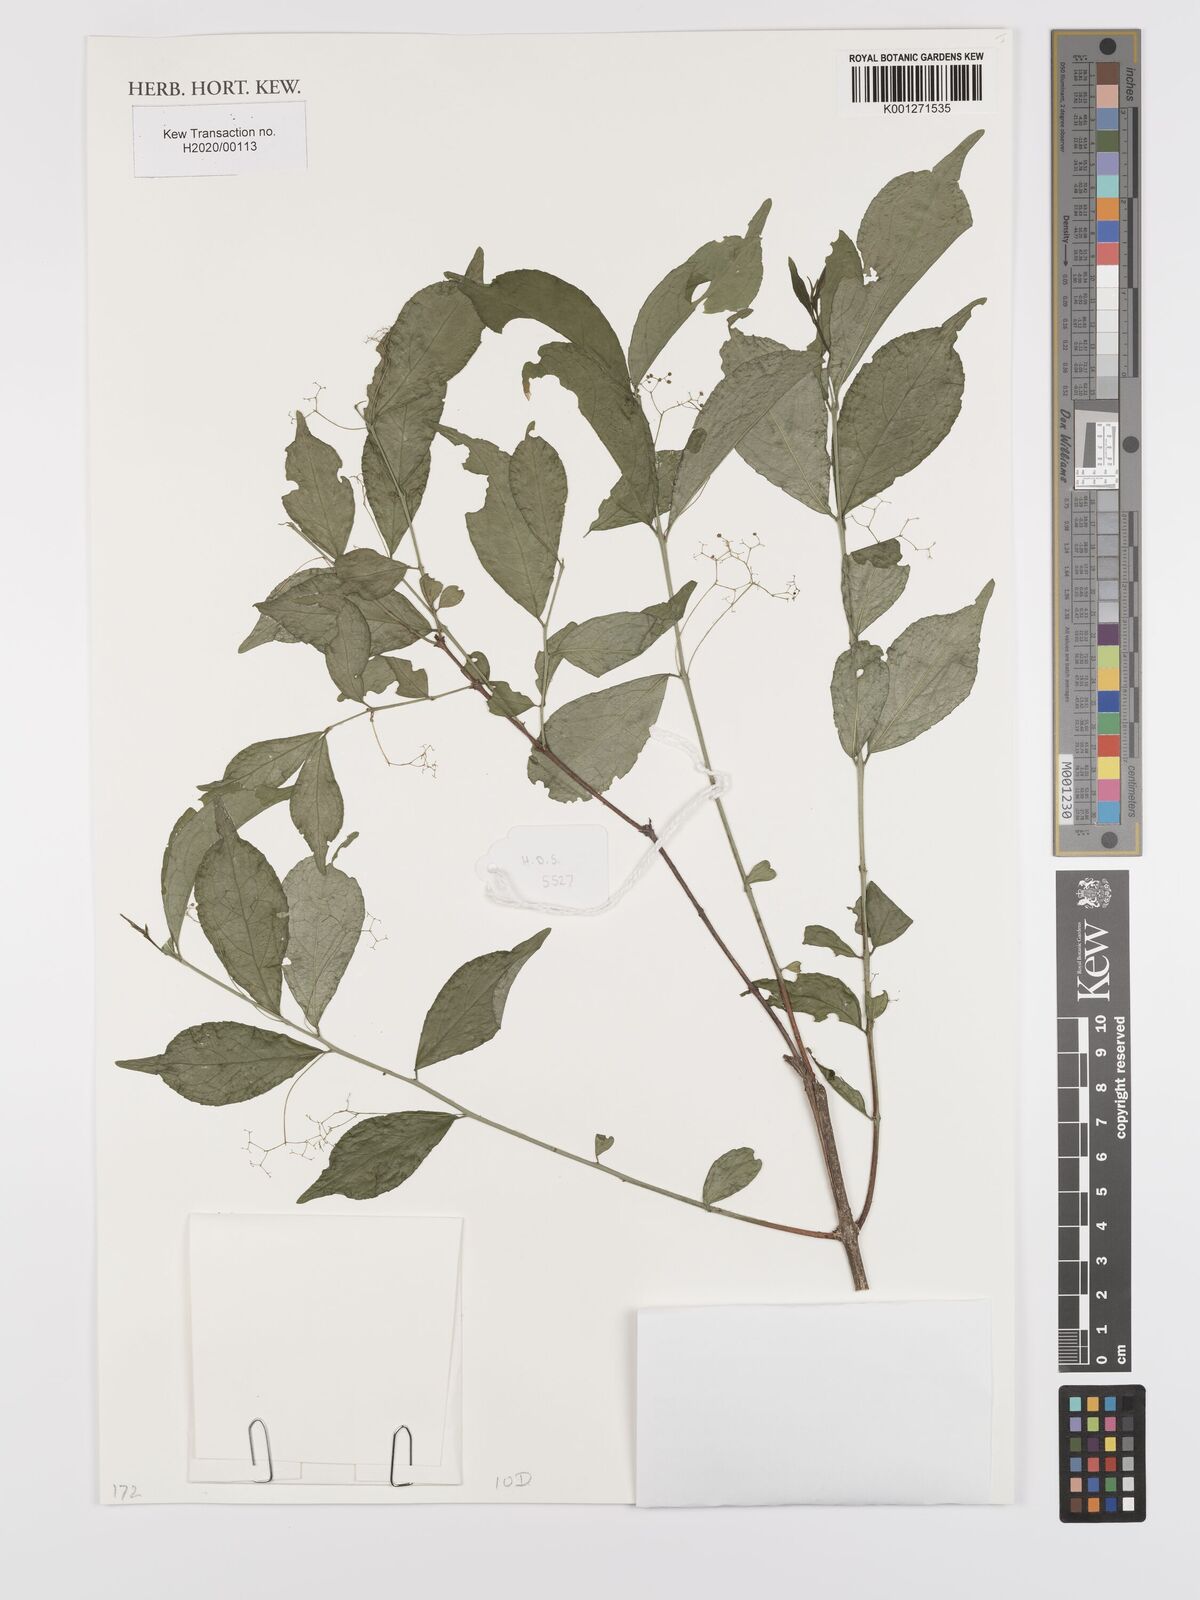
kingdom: Plantae
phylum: Tracheophyta
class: Magnoliopsida
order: Celastrales
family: Celastraceae
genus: Crossopetalum
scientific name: Crossopetalum mossambicense
